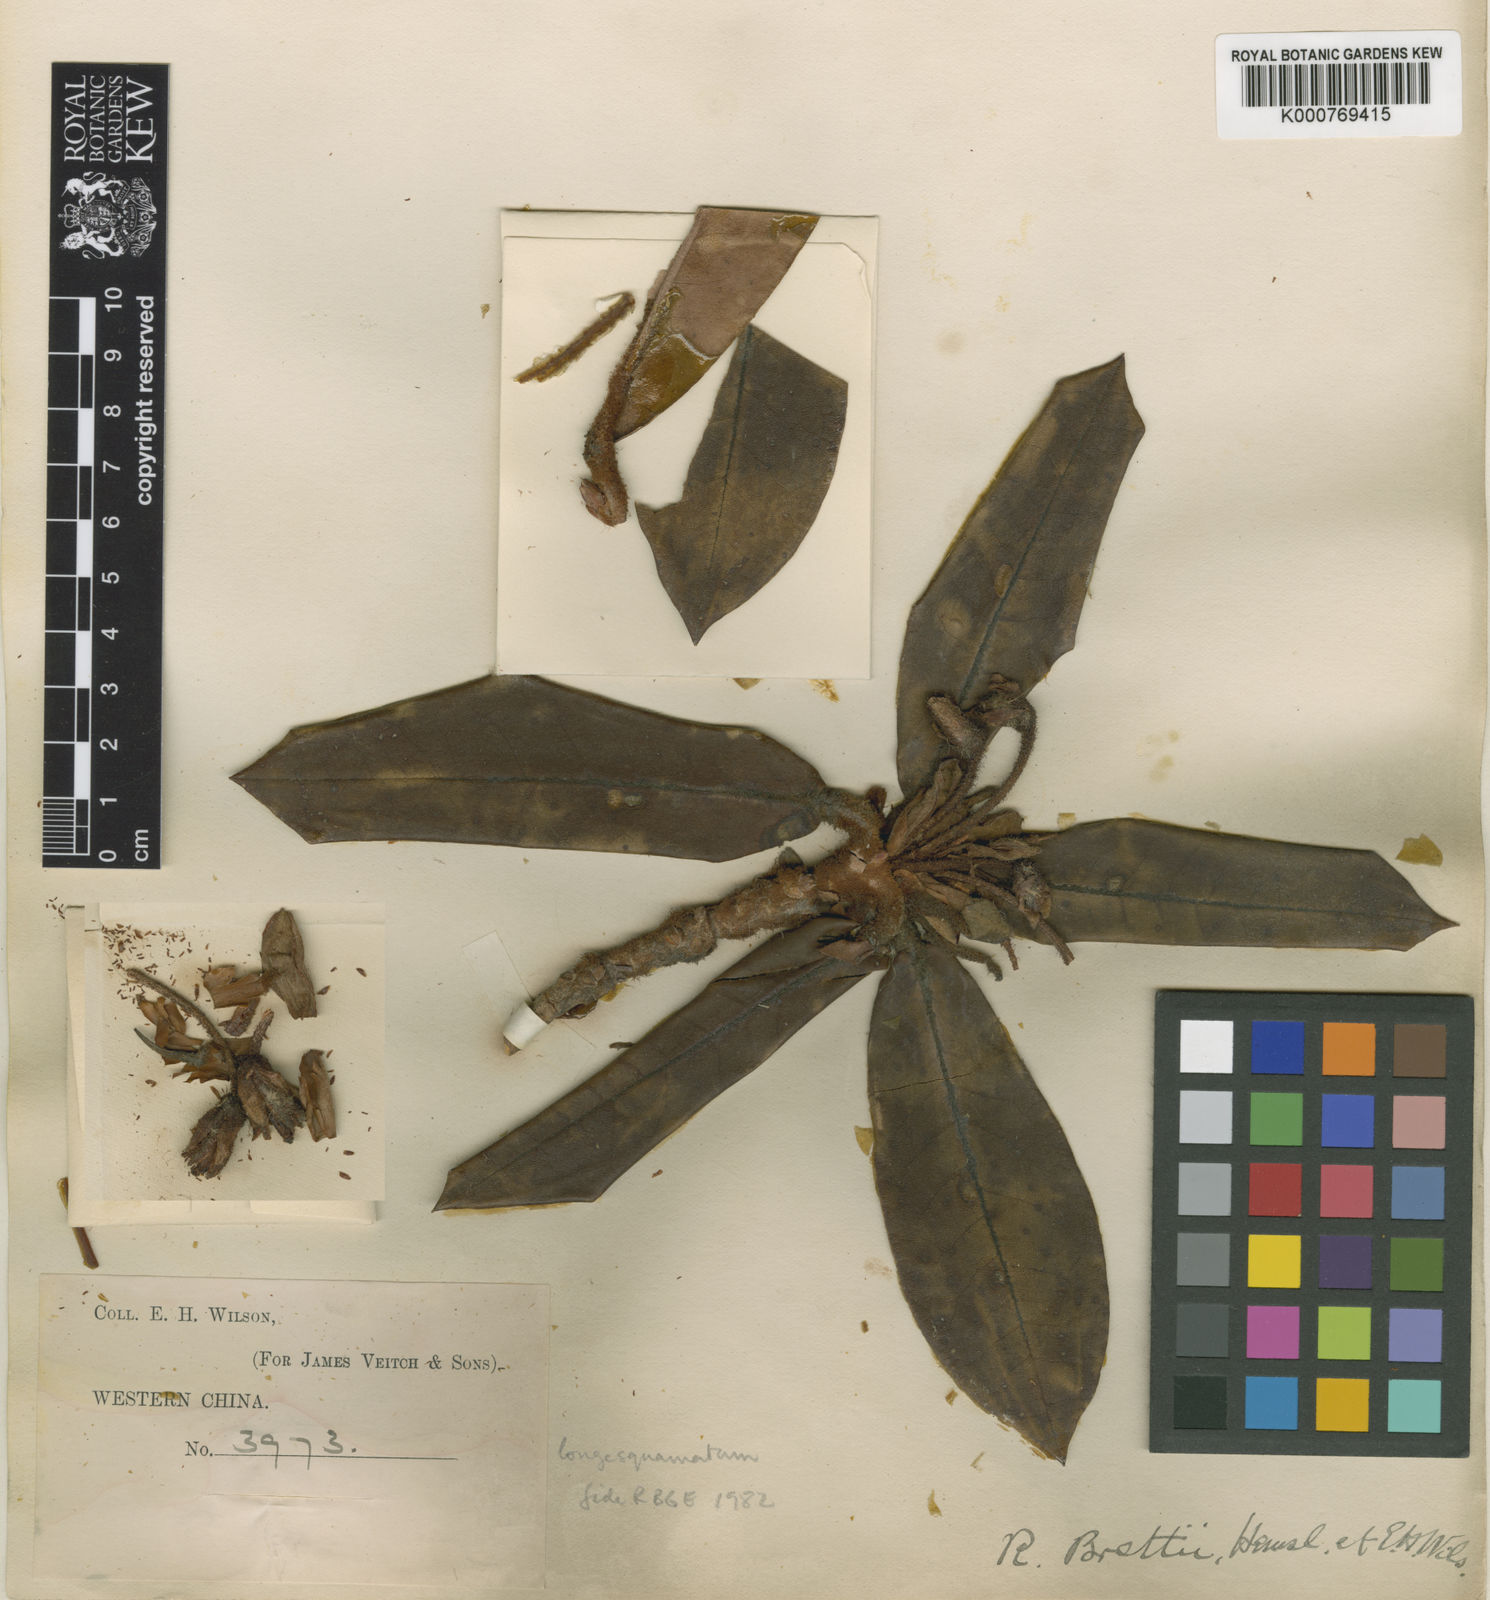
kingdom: Plantae
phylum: Tracheophyta
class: Magnoliopsida
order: Ericales
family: Ericaceae
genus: Rhododendron
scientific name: Rhododendron longesquamatum
